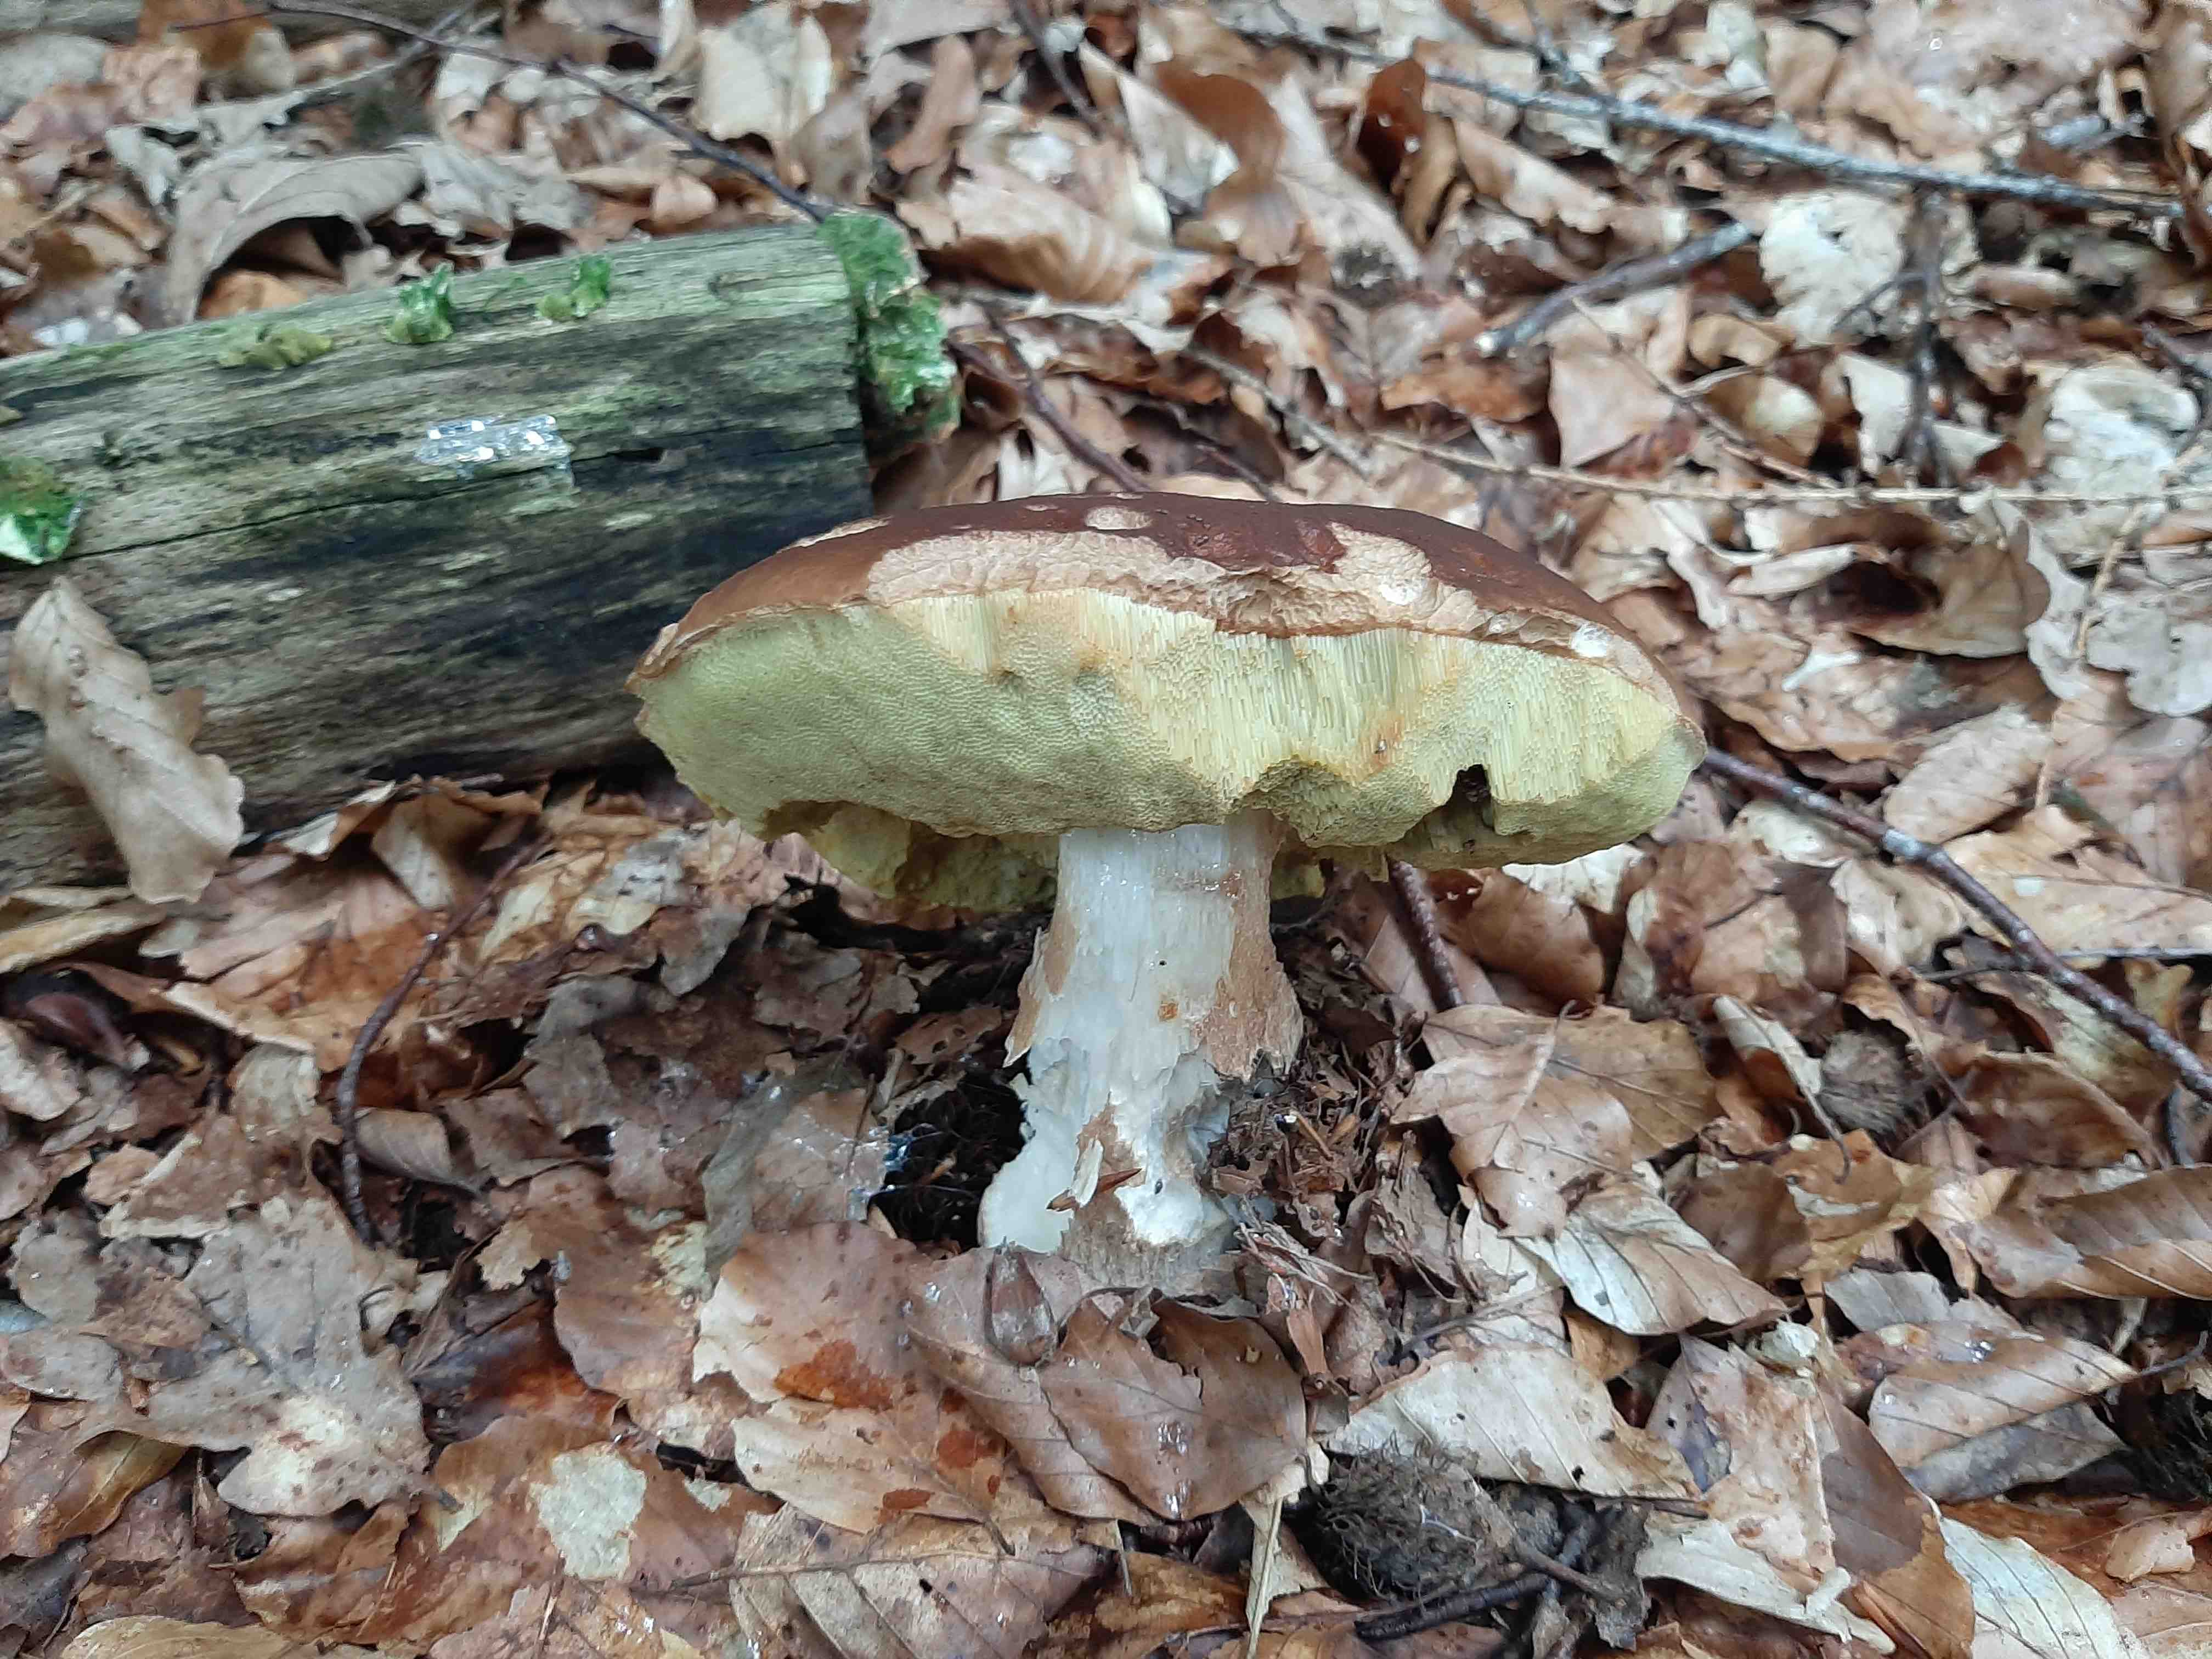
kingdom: Fungi
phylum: Basidiomycota
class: Agaricomycetes
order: Boletales
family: Boletaceae
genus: Boletus
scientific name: Boletus edulis
